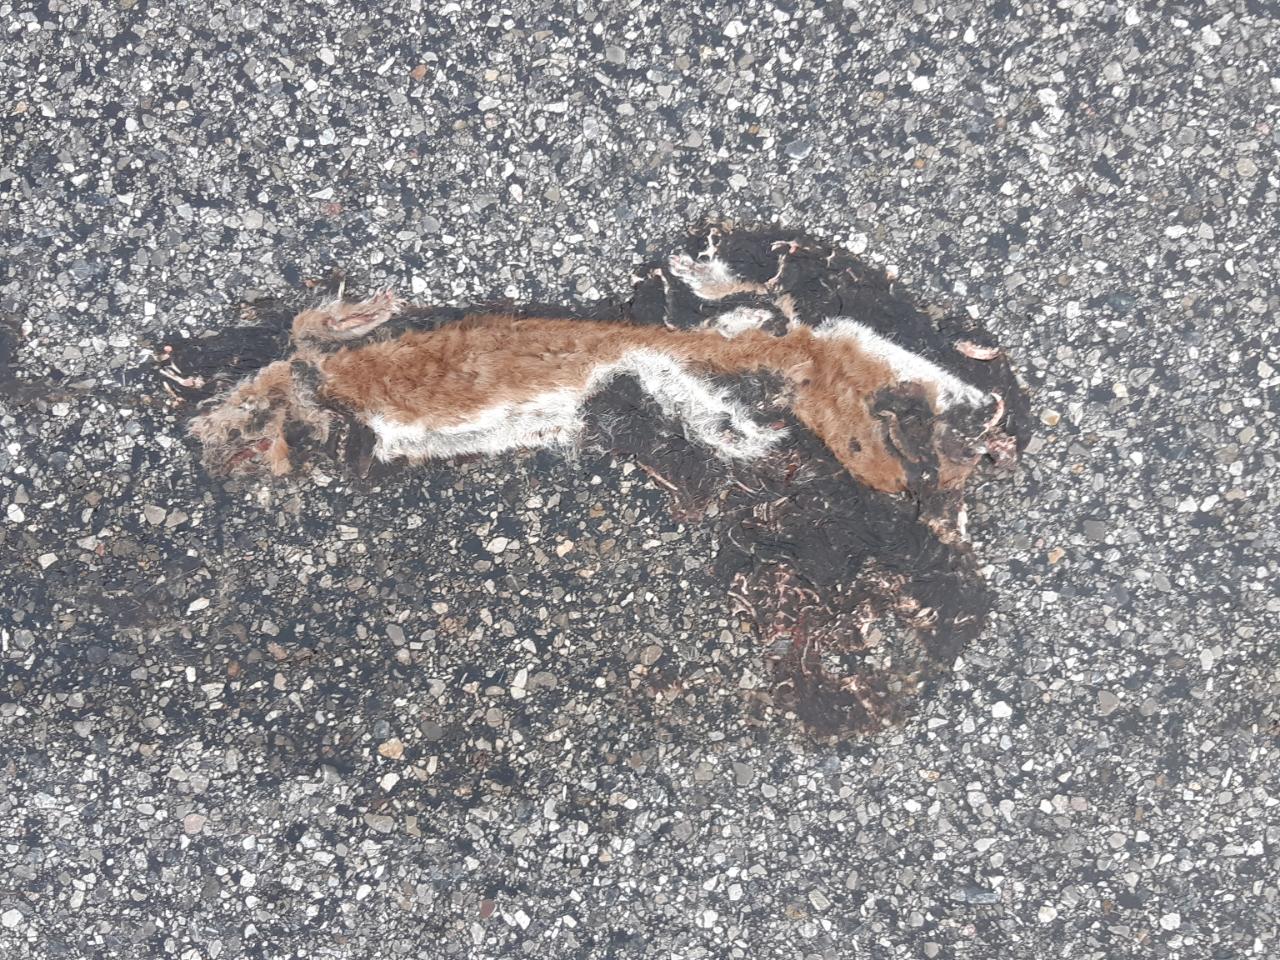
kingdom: Animalia
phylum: Chordata
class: Mammalia
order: Carnivora
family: Mustelidae
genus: Mustela
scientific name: Mustela nivalis
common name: Least weasel
